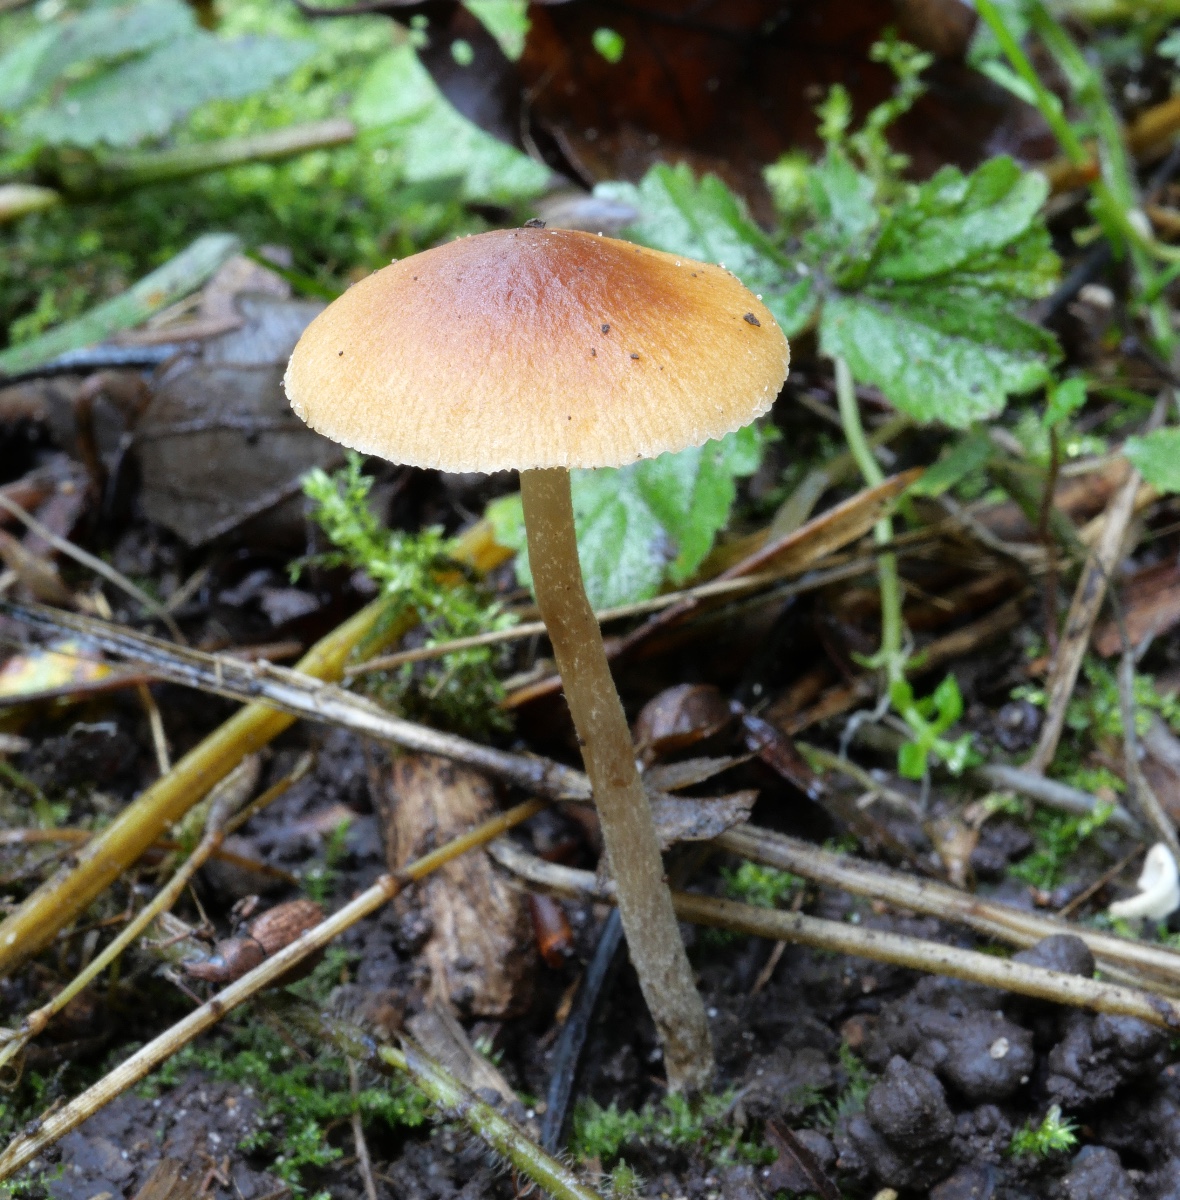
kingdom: Fungi
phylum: Basidiomycota
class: Agaricomycetes
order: Agaricales
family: Bolbitiaceae
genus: Conocybe
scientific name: Conocybe arrhenii
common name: ring-dansehat
